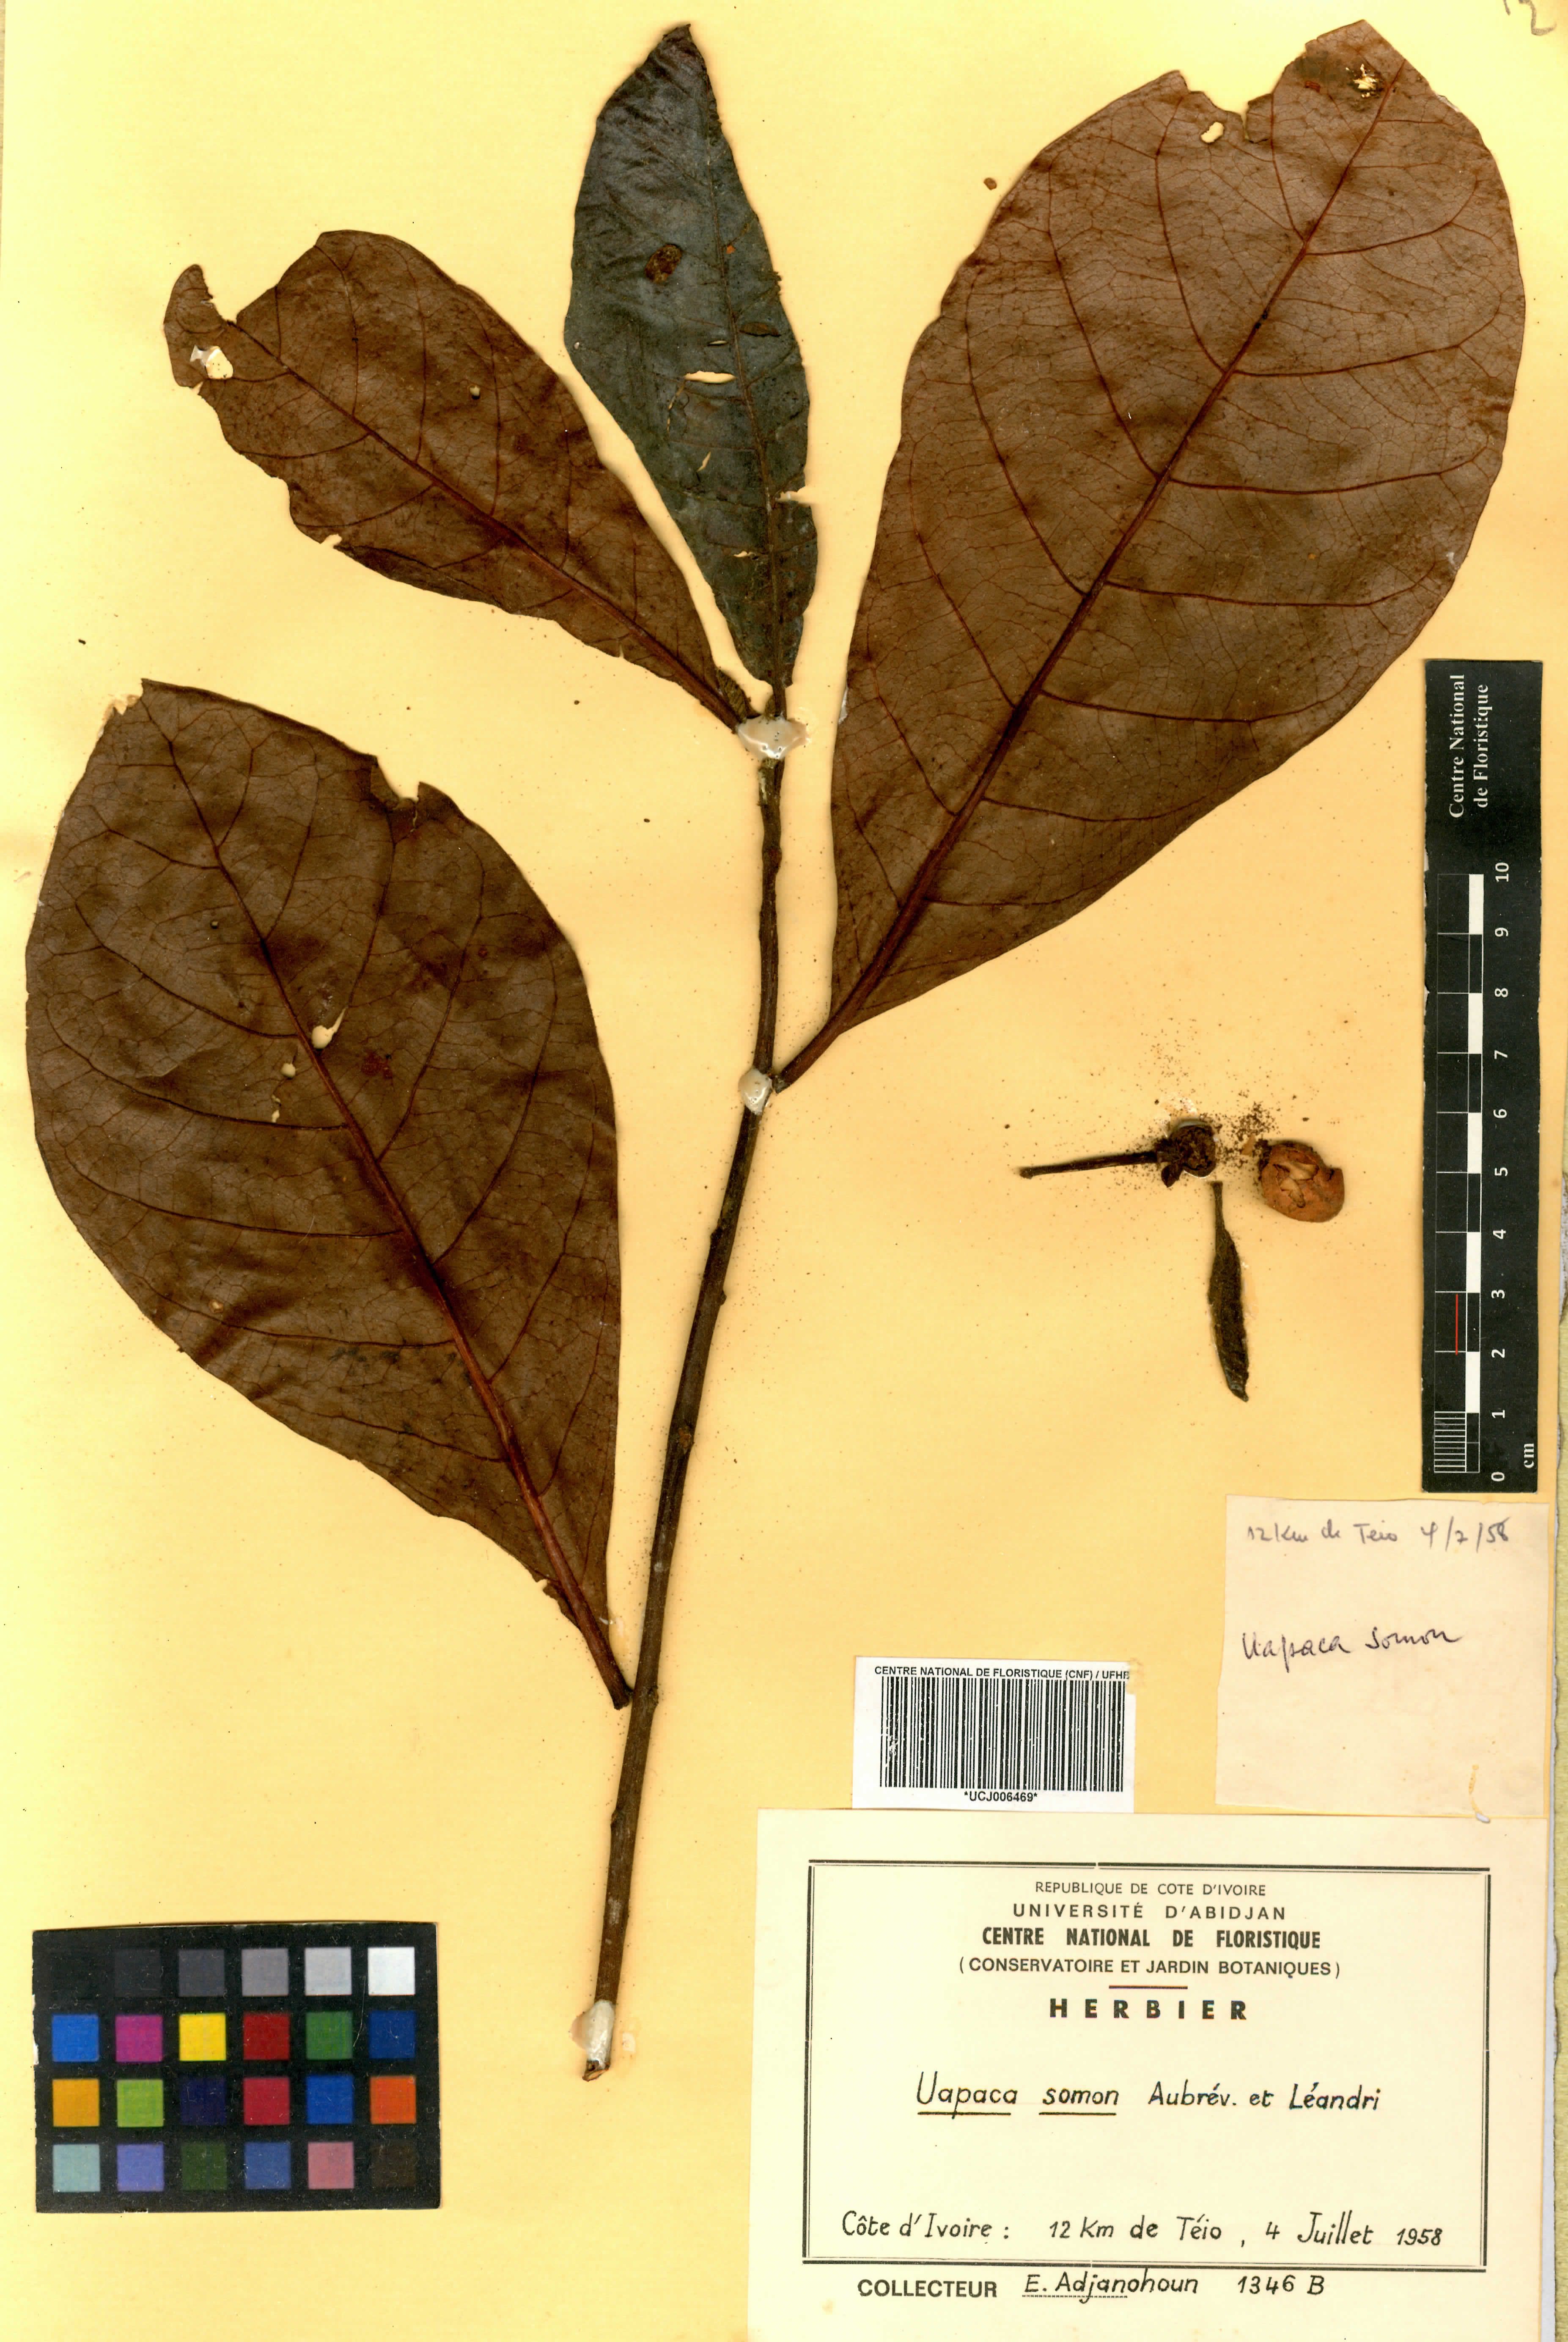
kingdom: Plantae
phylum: Tracheophyta
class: Magnoliopsida
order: Malpighiales
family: Phyllanthaceae
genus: Uapaca
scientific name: Uapaca togoensis
